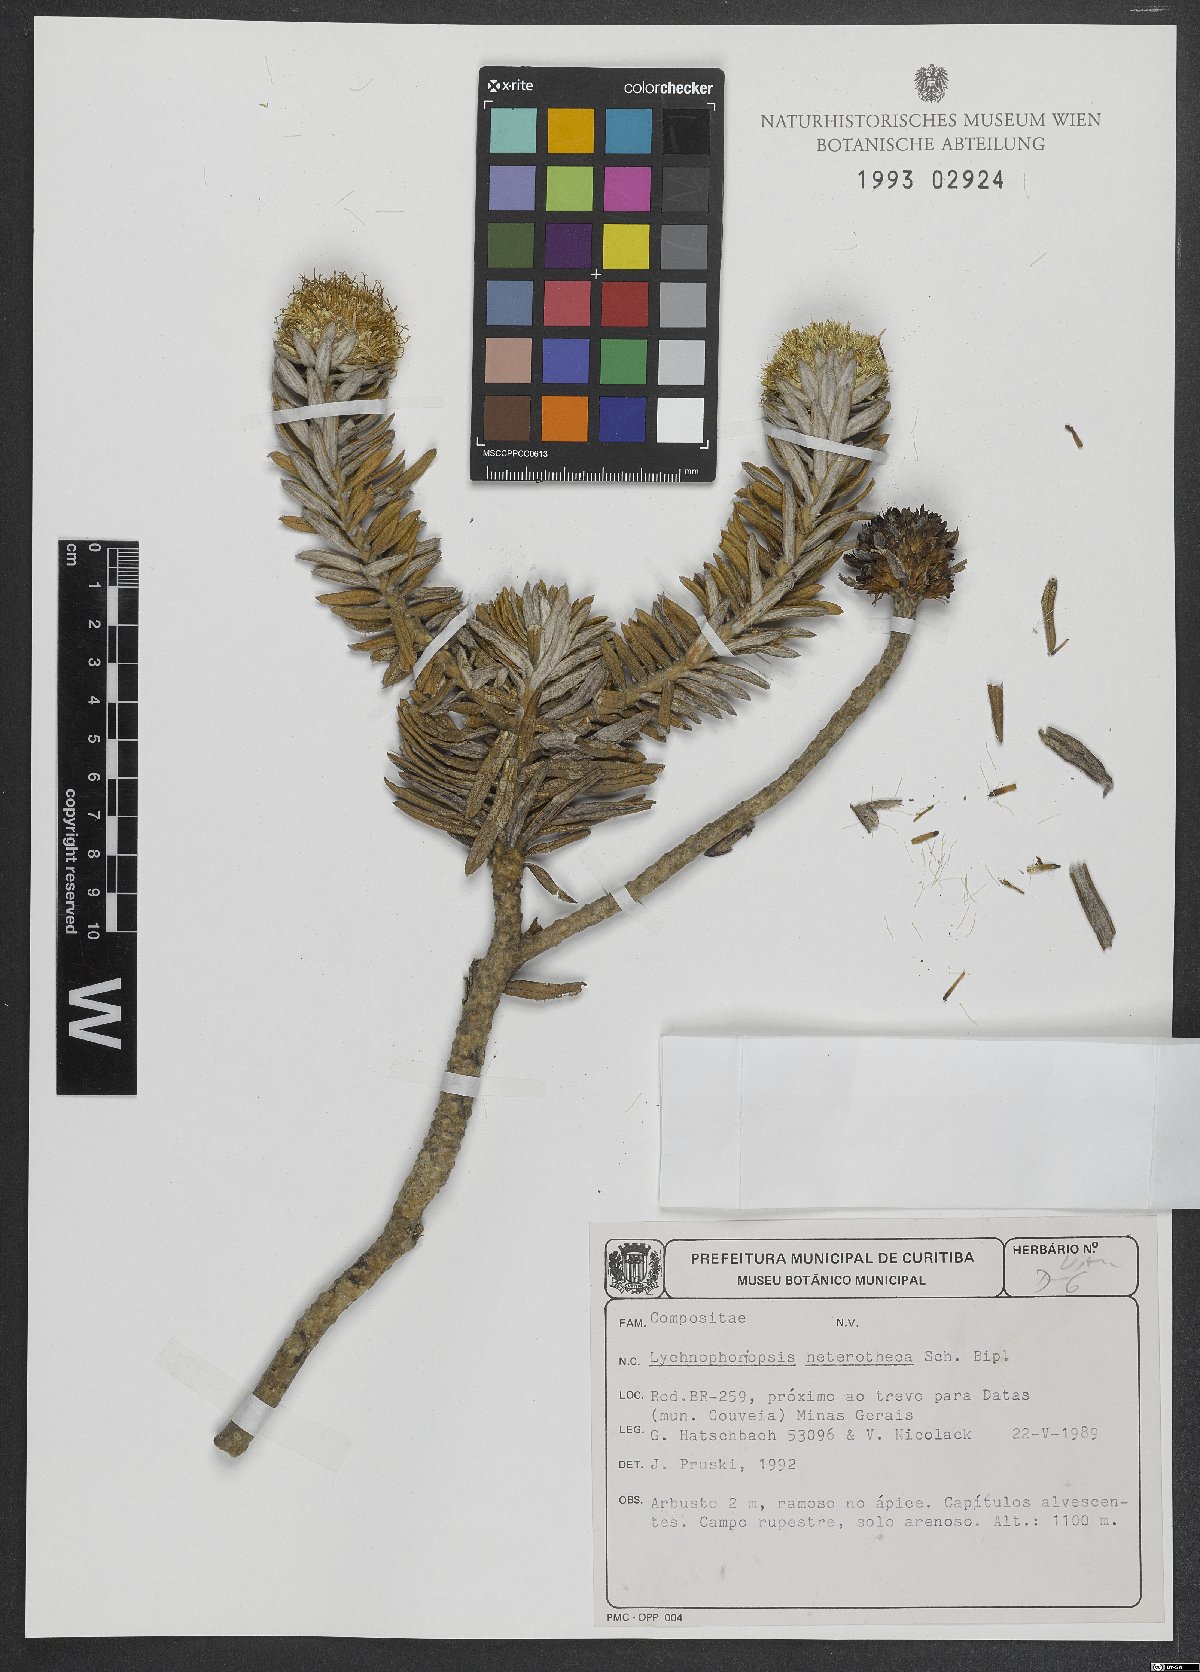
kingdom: Plantae
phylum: Tracheophyta
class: Magnoliopsida
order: Asterales
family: Asteraceae
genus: Lychnophora
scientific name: Lychnophora candelabrum
